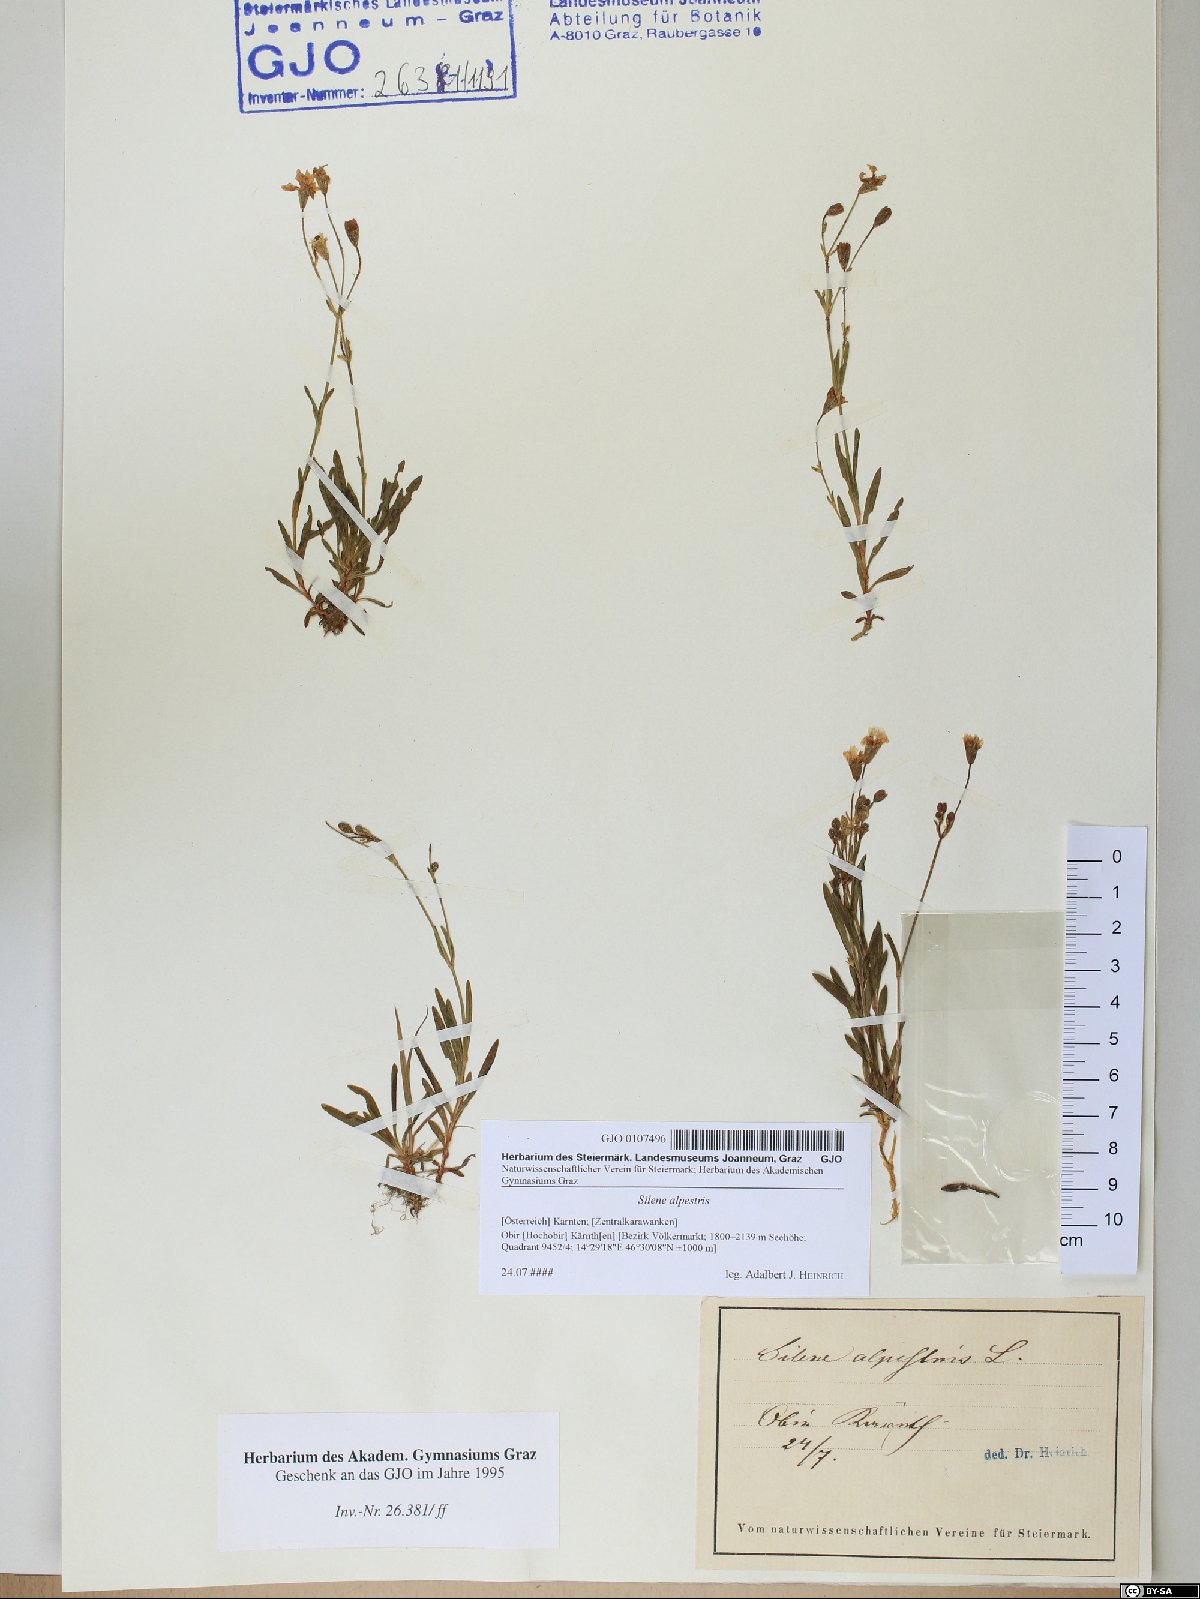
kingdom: Plantae
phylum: Tracheophyta
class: Magnoliopsida
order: Caryophyllales
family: Caryophyllaceae
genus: Heliosperma
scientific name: Heliosperma alpestre
